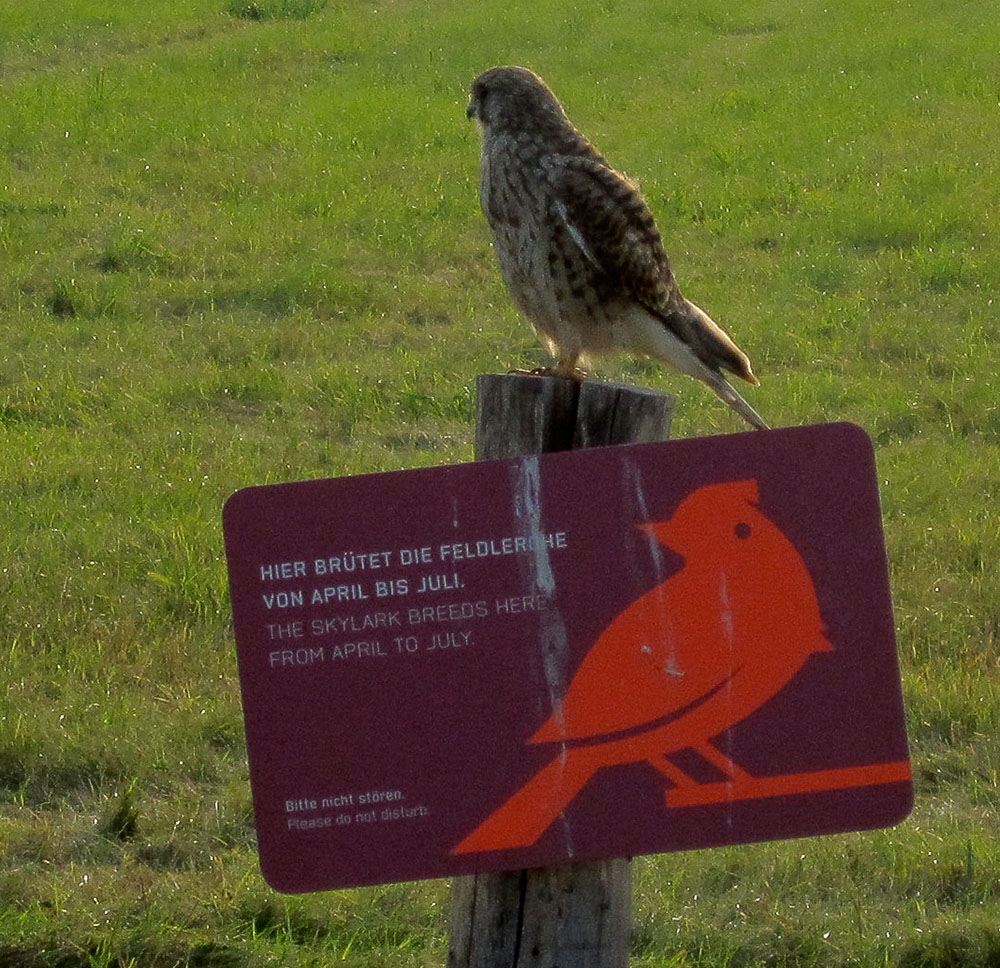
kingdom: Animalia
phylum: Chordata
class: Aves
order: Falconiformes
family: Falconidae
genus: Falco
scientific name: Falco tinnunculus
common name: Common kestrel
